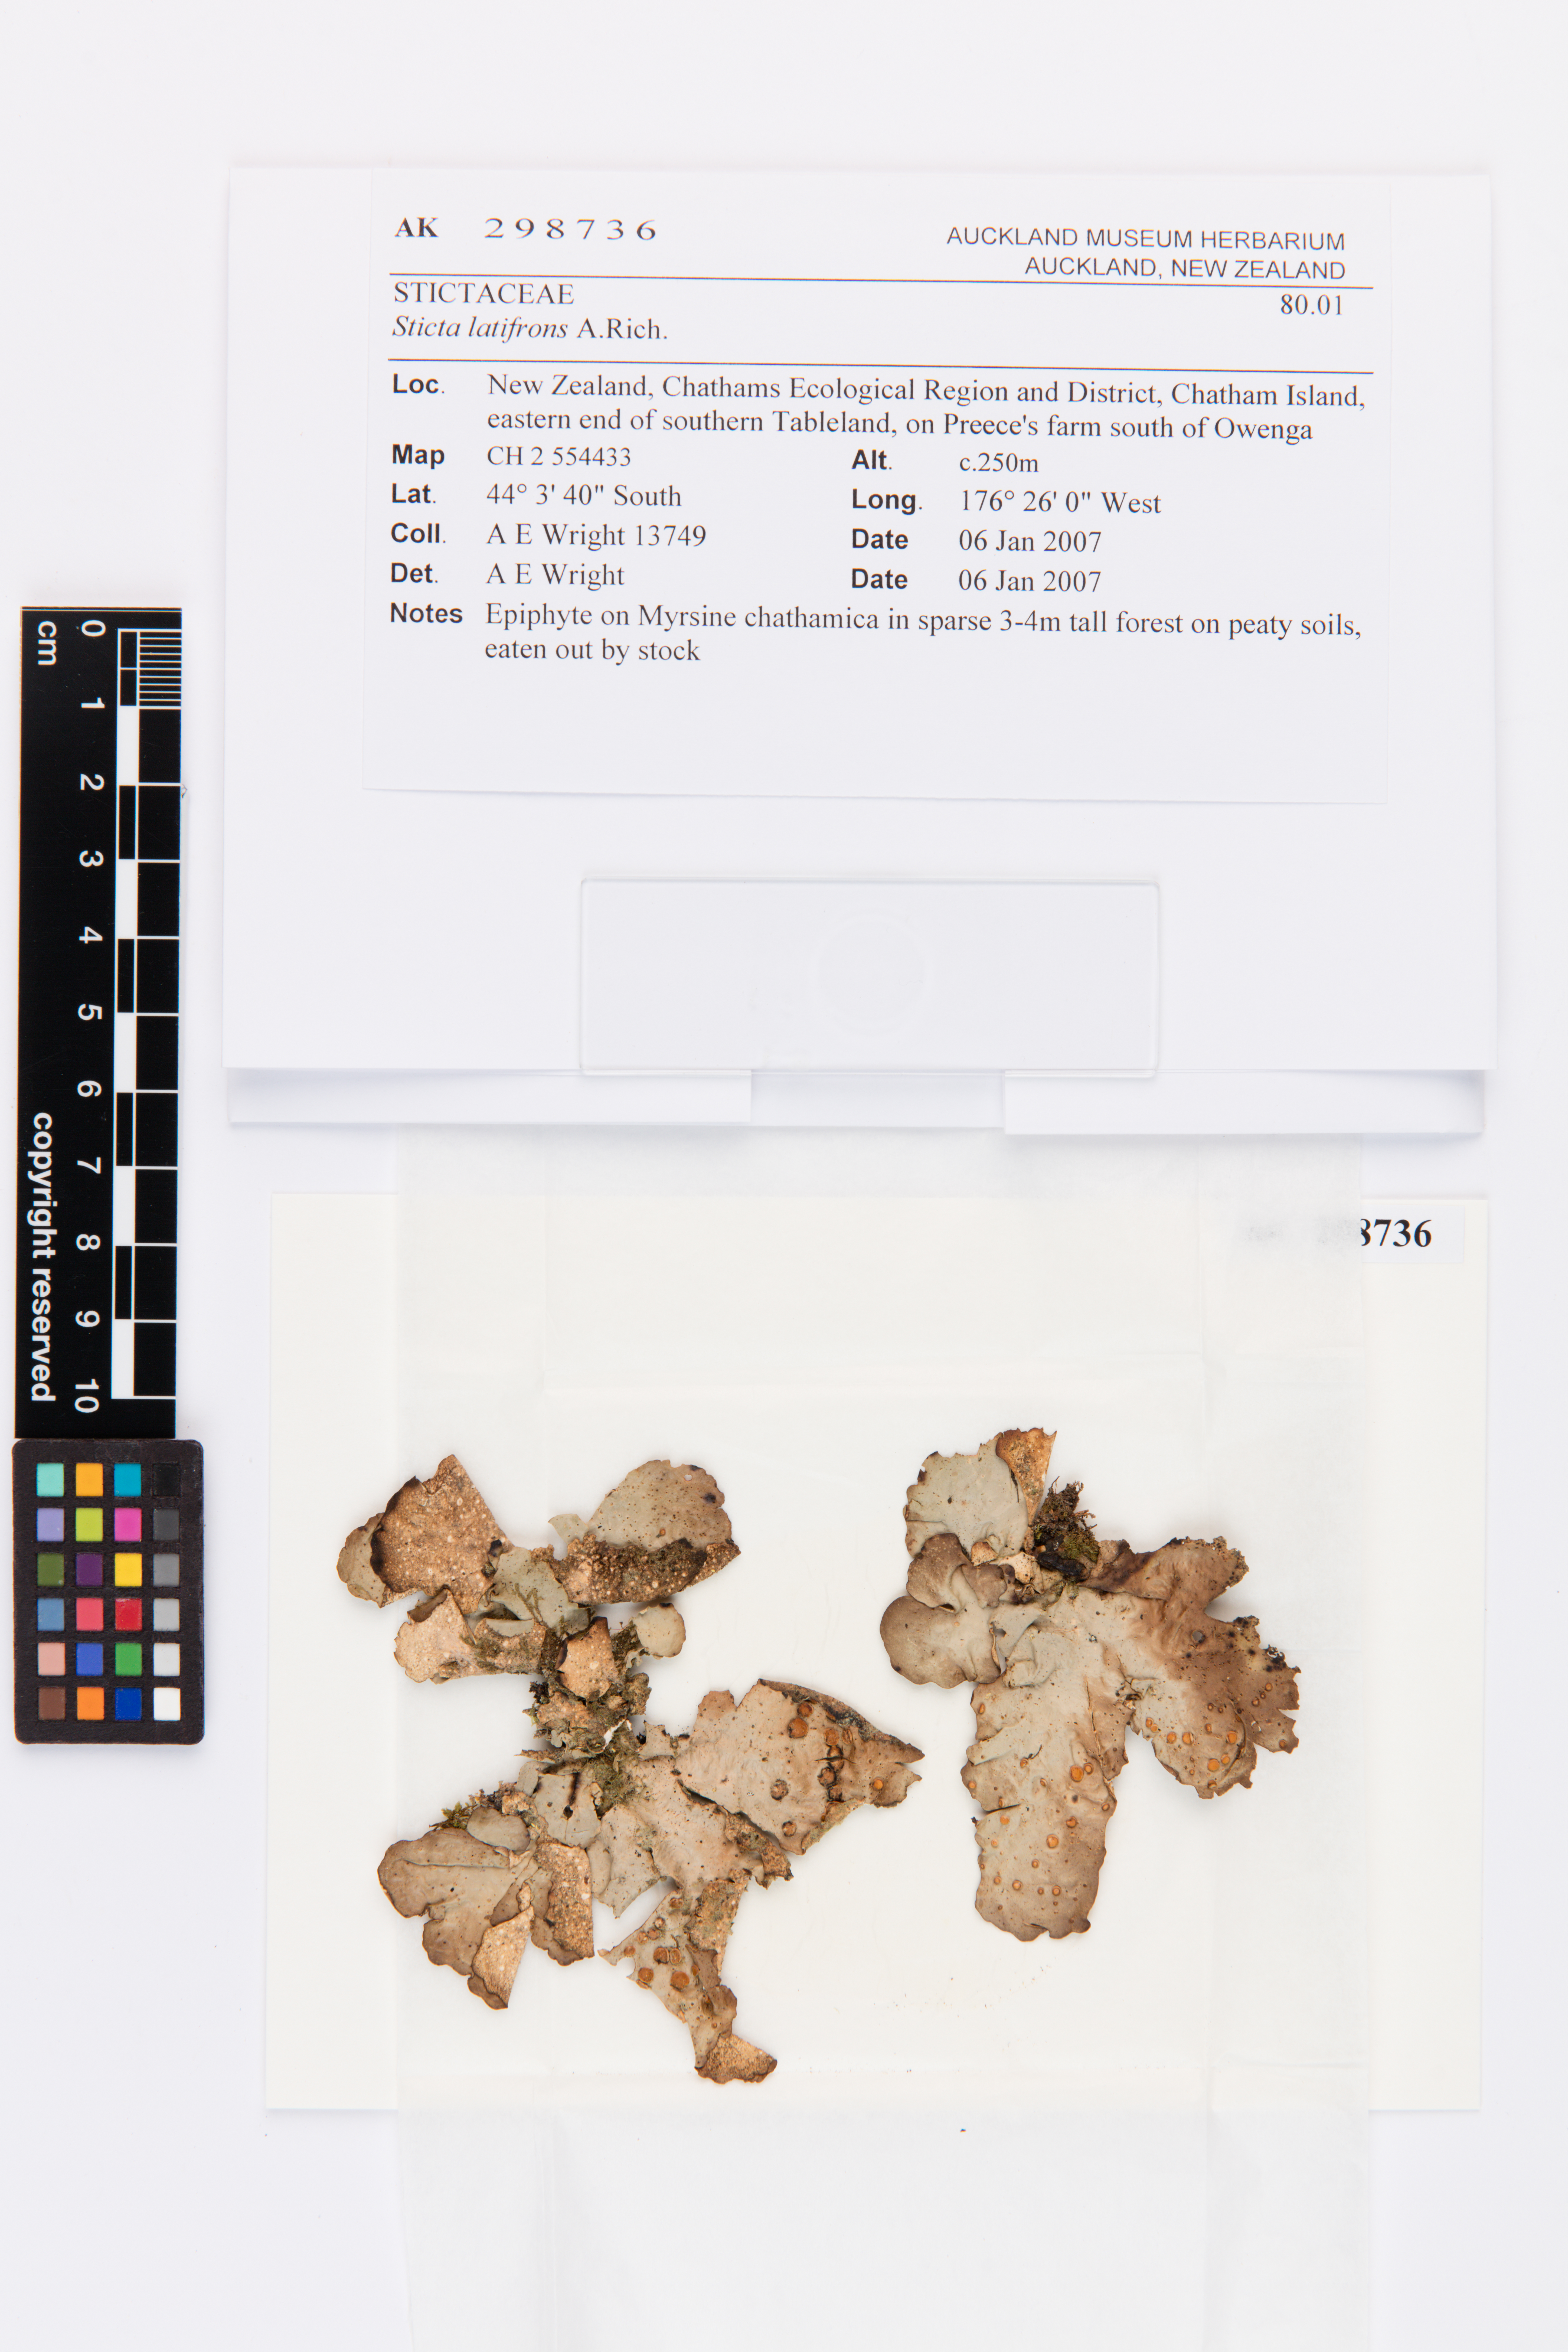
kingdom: Fungi
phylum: Ascomycota
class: Lecanoromycetes
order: Peltigerales
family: Lobariaceae
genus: Sticta
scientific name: Sticta latifrons
